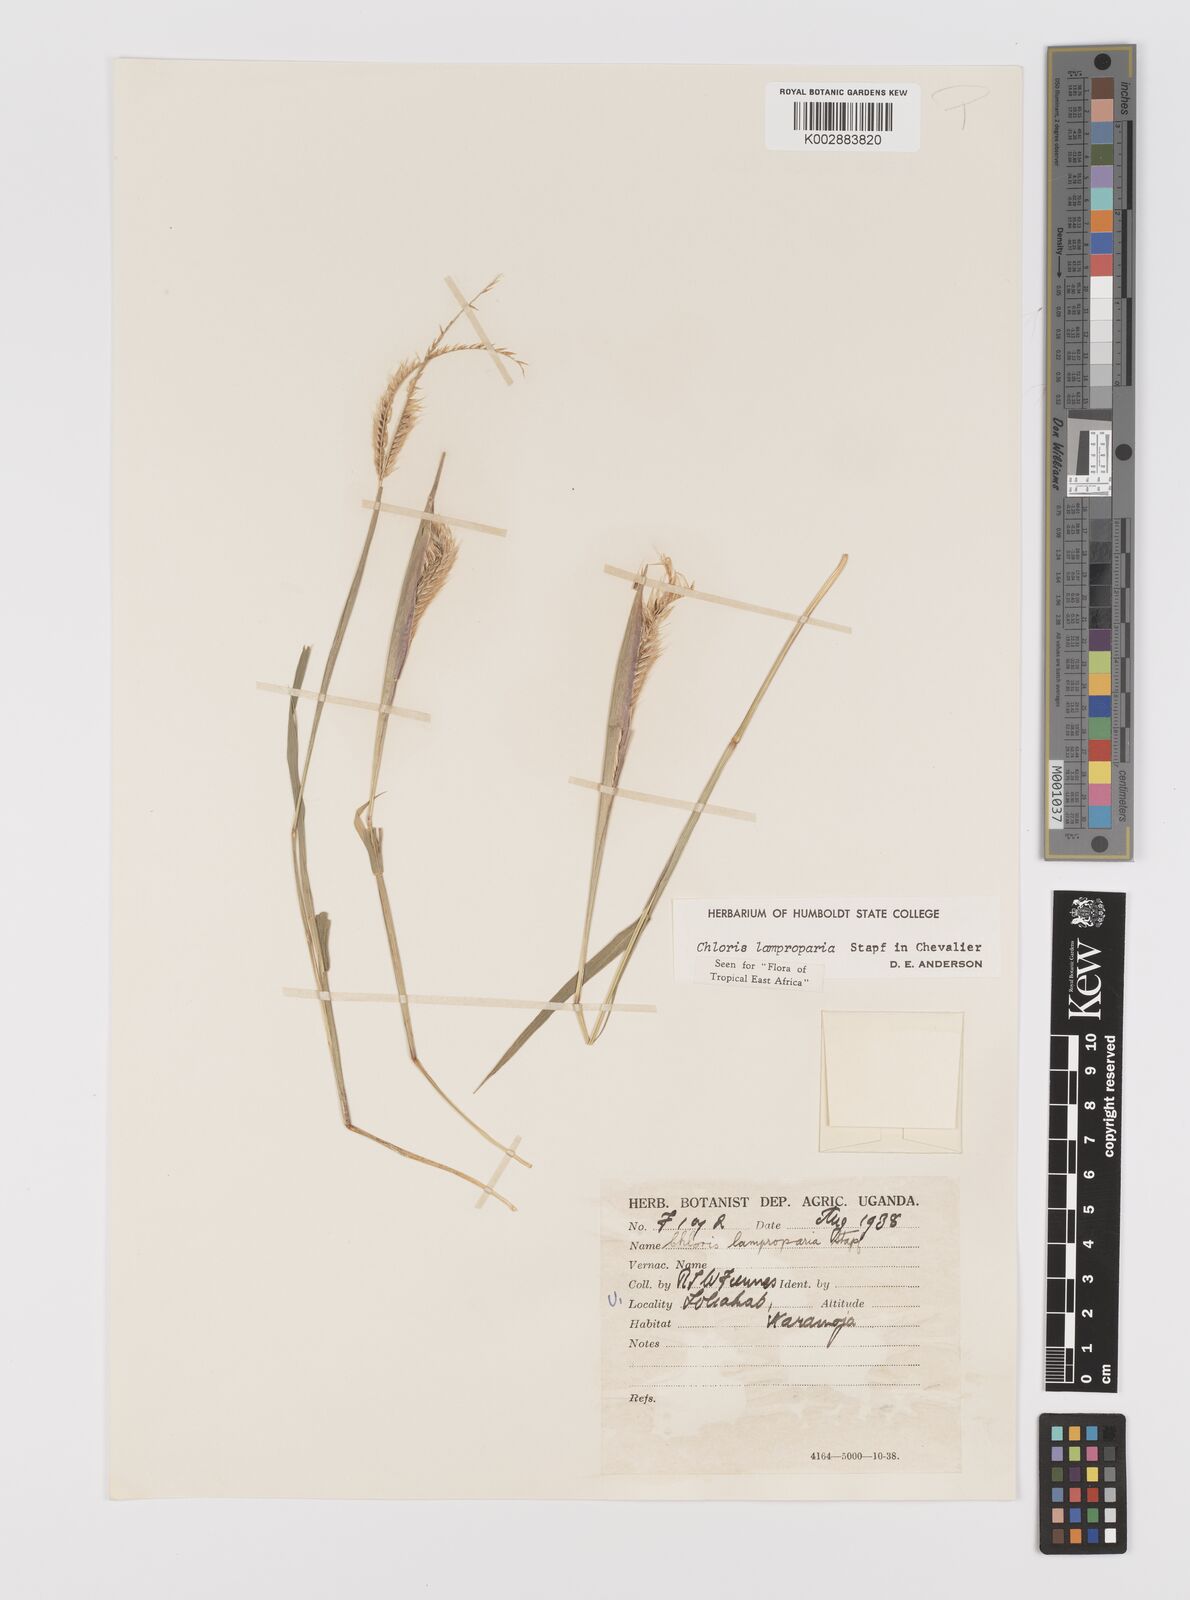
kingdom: Plantae
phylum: Tracheophyta
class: Liliopsida
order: Poales
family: Poaceae
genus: Stapfochloa
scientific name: Stapfochloa lamproparia
